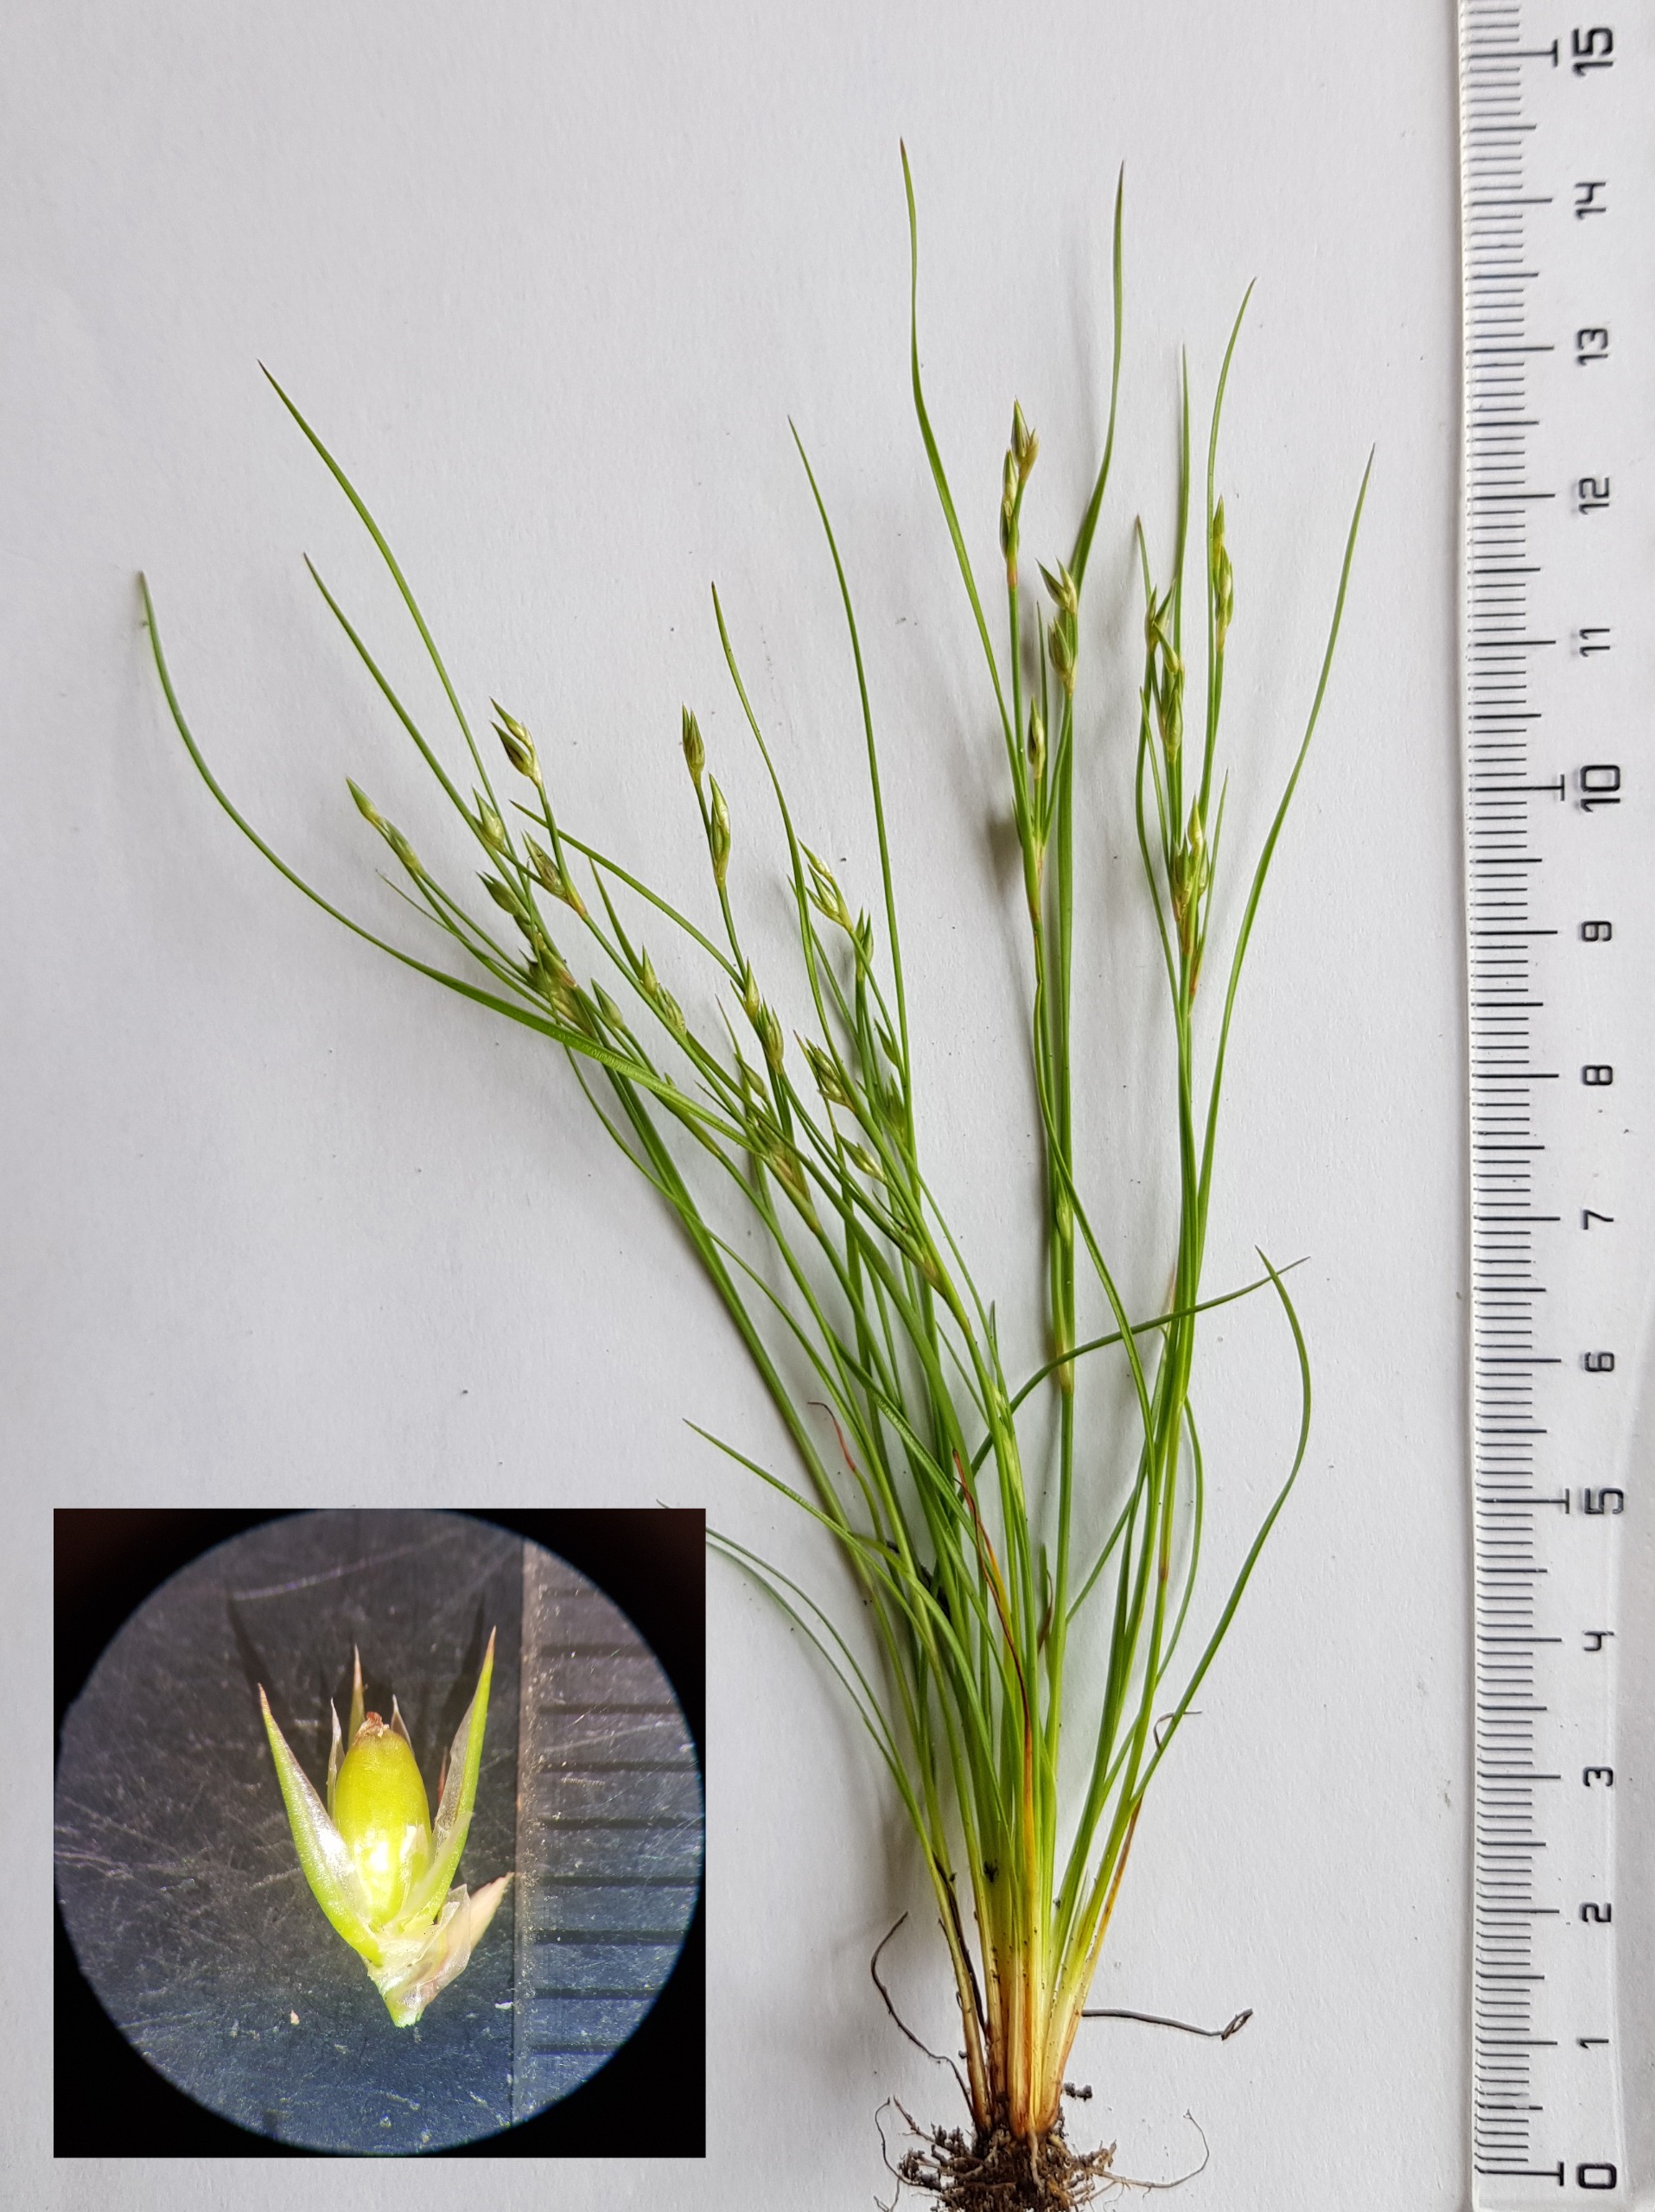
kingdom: Plantae
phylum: Tracheophyta
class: Liliopsida
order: Poales
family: Juncaceae
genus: Juncus
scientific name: Juncus bufonius
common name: Tudse-siv
